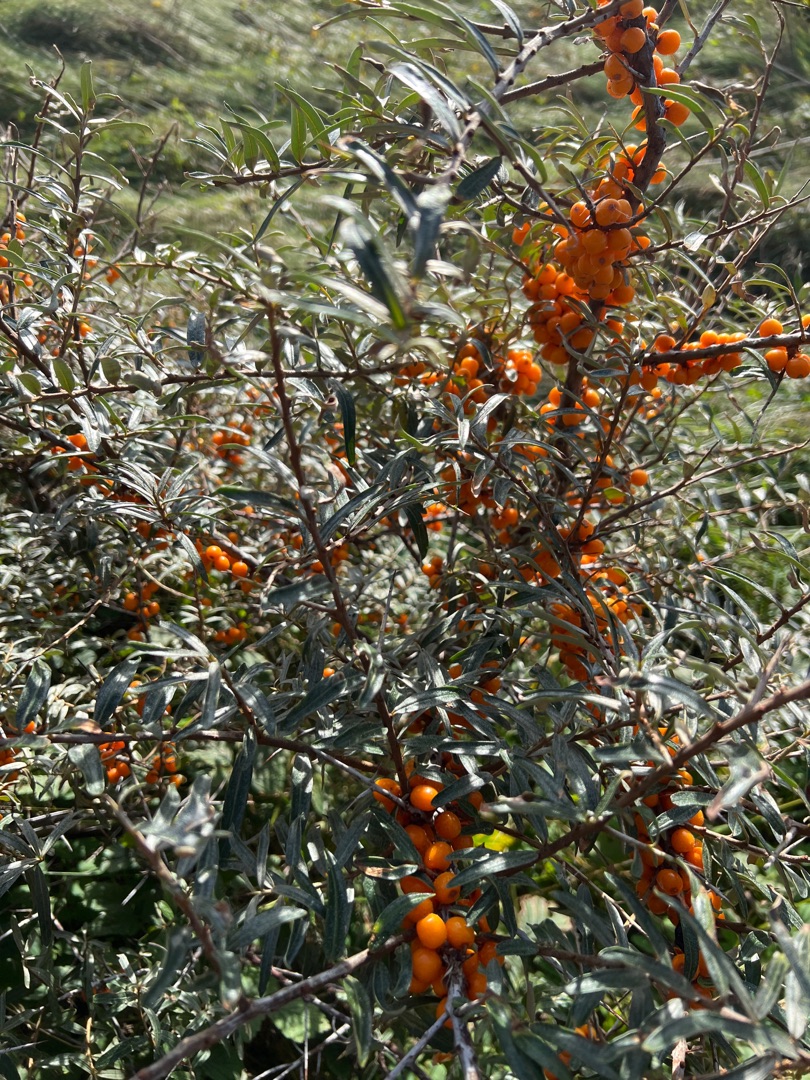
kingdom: Plantae
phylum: Tracheophyta
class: Magnoliopsida
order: Rosales
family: Elaeagnaceae
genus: Hippophae
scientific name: Hippophae rhamnoides
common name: Havtorn
